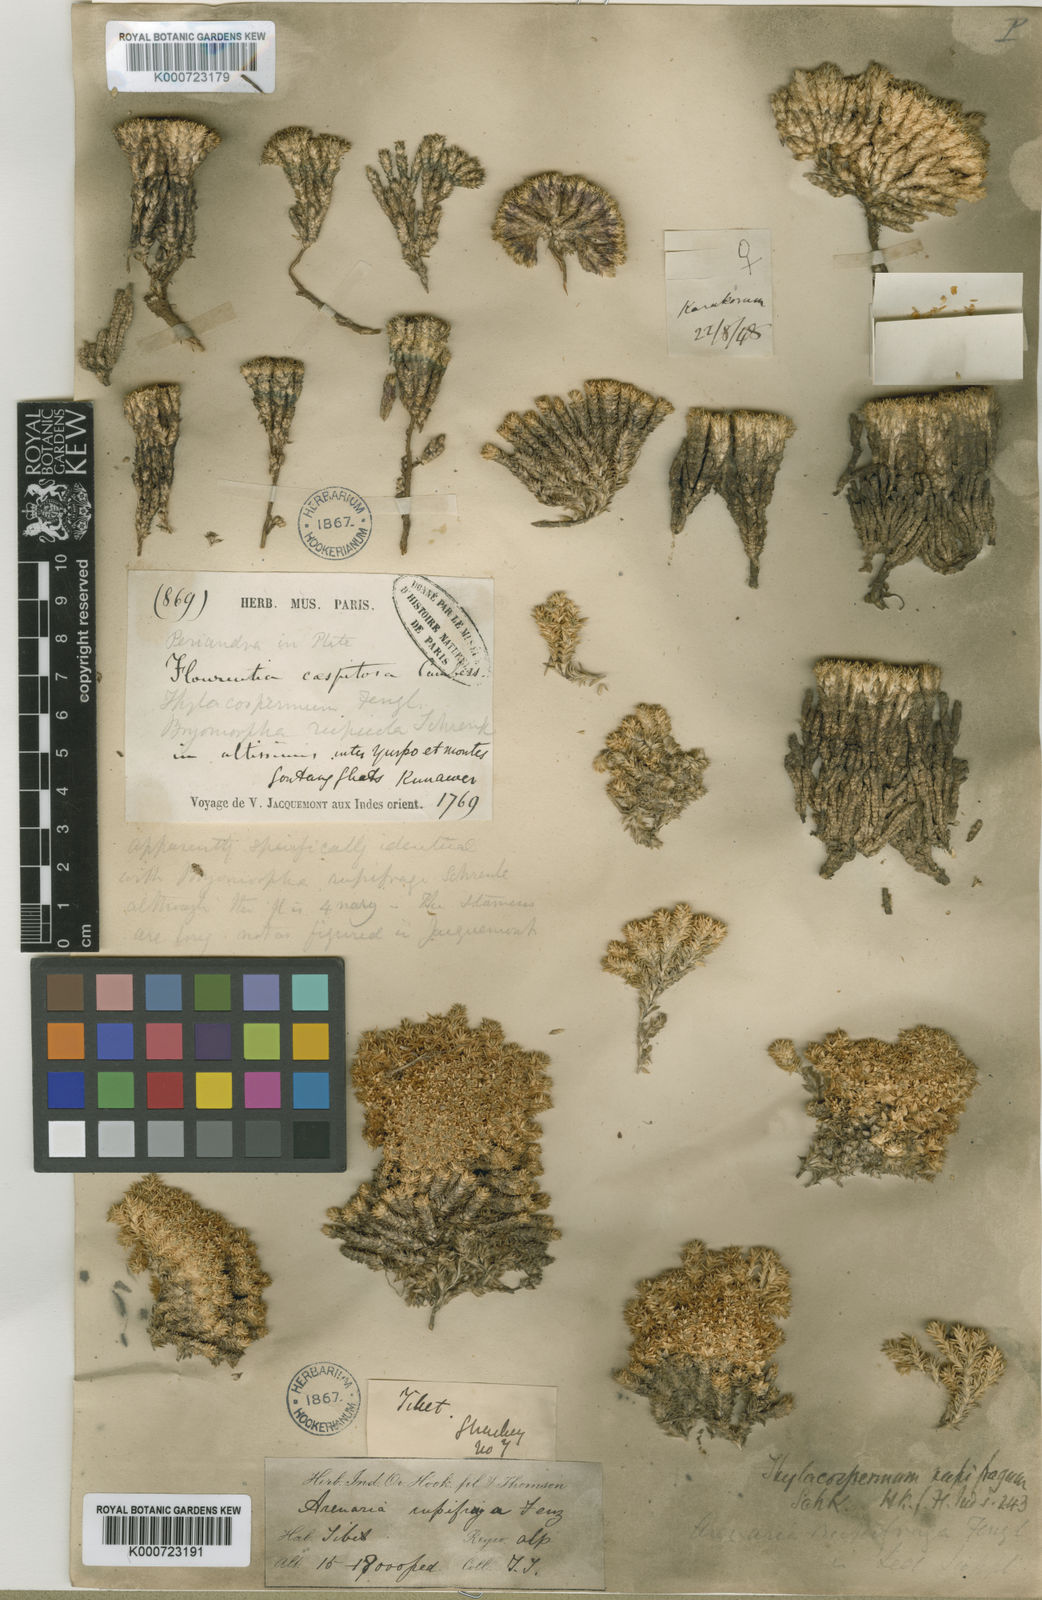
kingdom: Plantae
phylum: Tracheophyta
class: Magnoliopsida
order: Caryophyllales
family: Caryophyllaceae
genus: Thylacospermum
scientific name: Thylacospermum caespitosum
